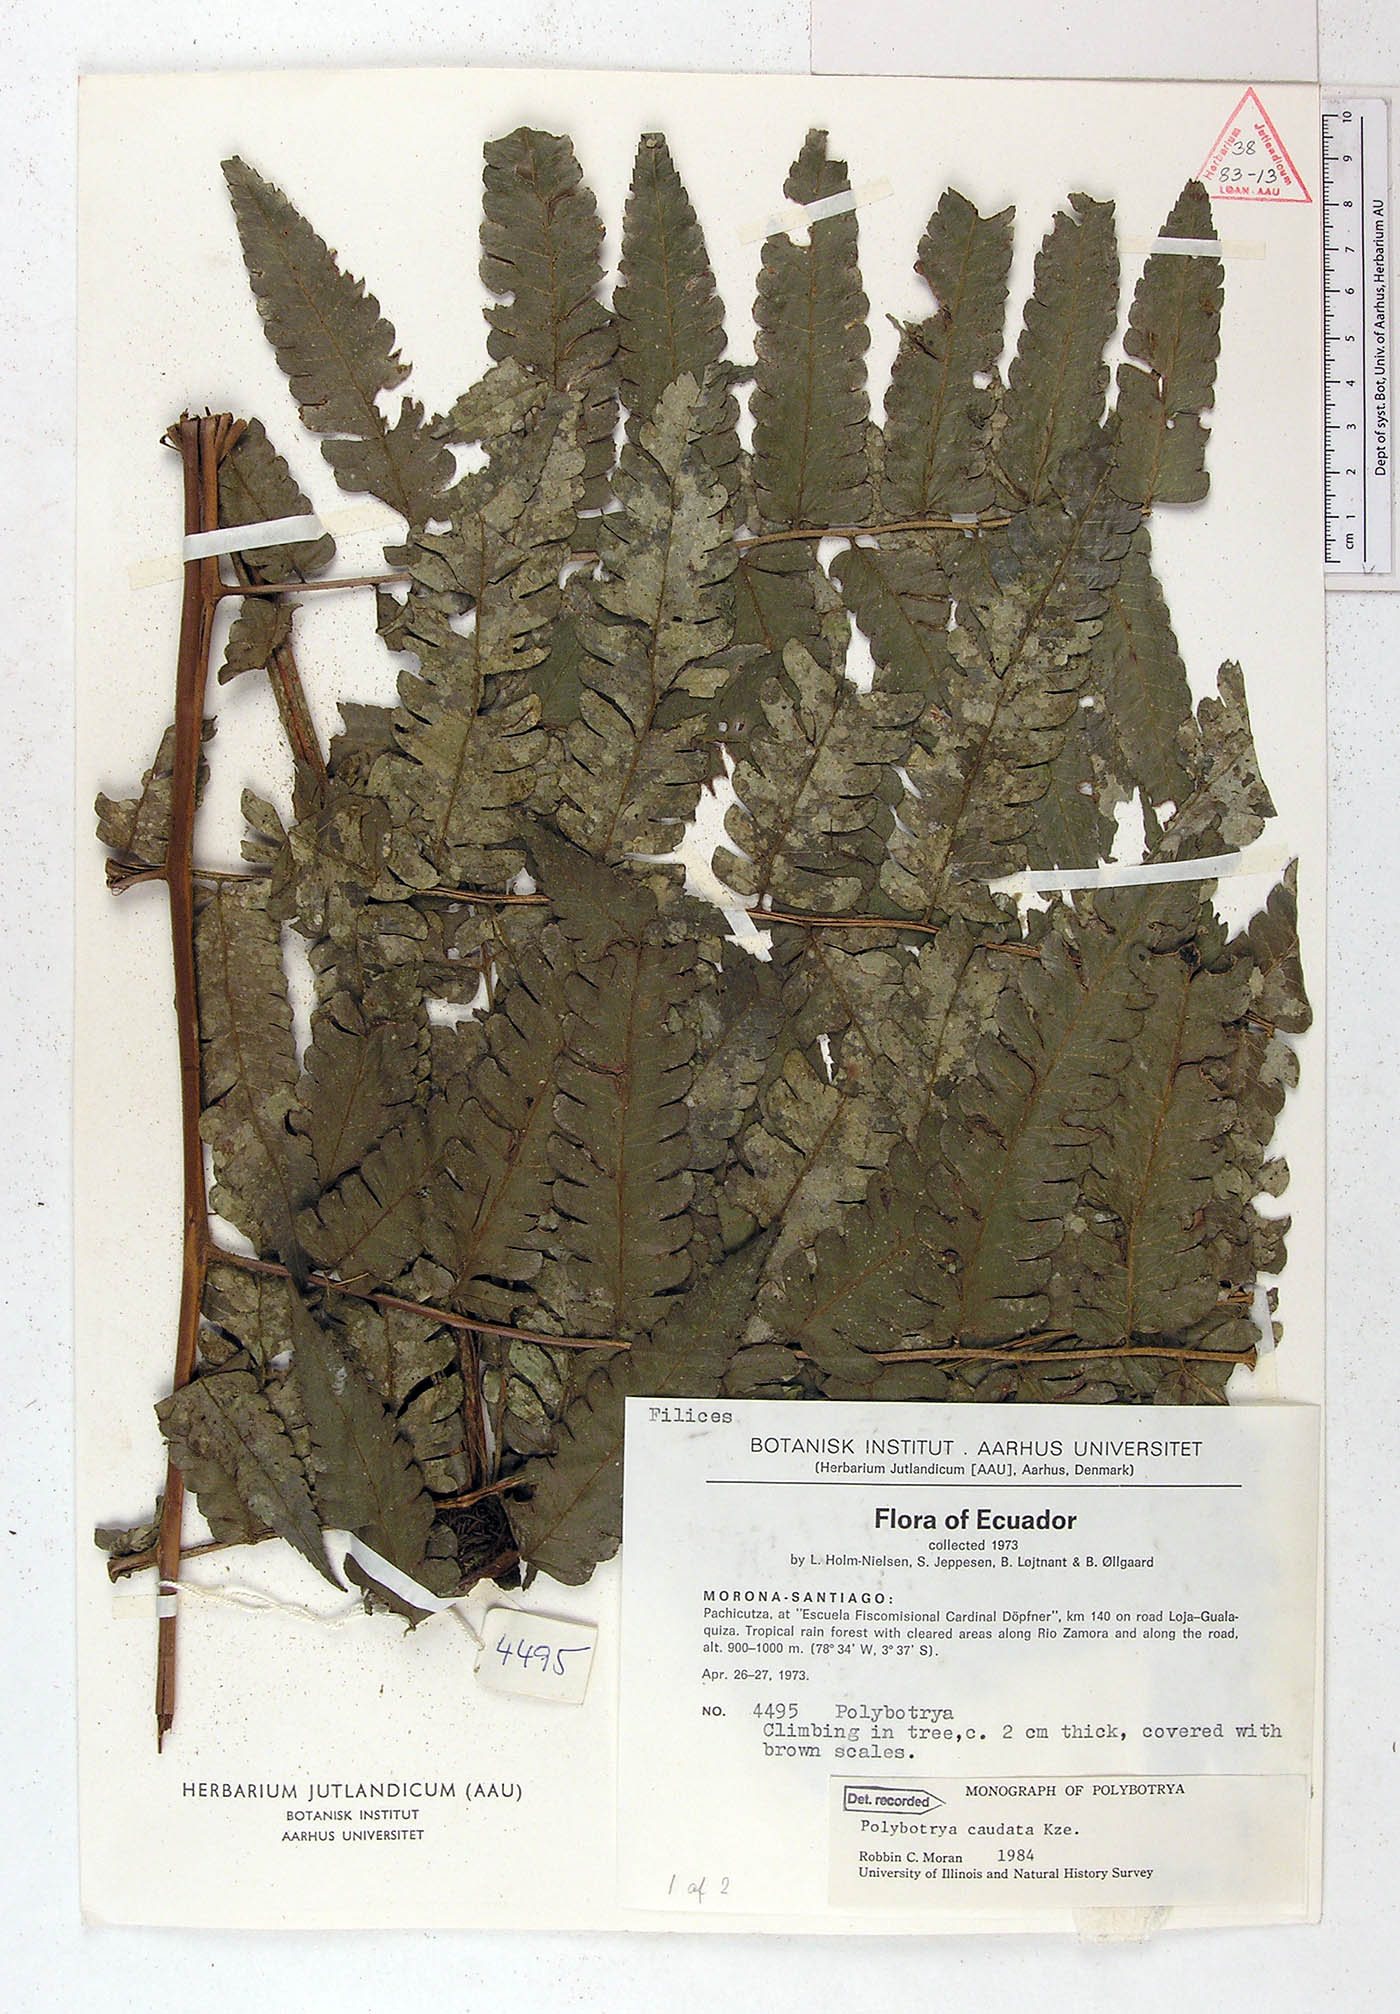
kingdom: Plantae
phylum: Tracheophyta
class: Polypodiopsida
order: Polypodiales
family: Dryopteridaceae
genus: Polybotrya
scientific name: Polybotrya caudata
